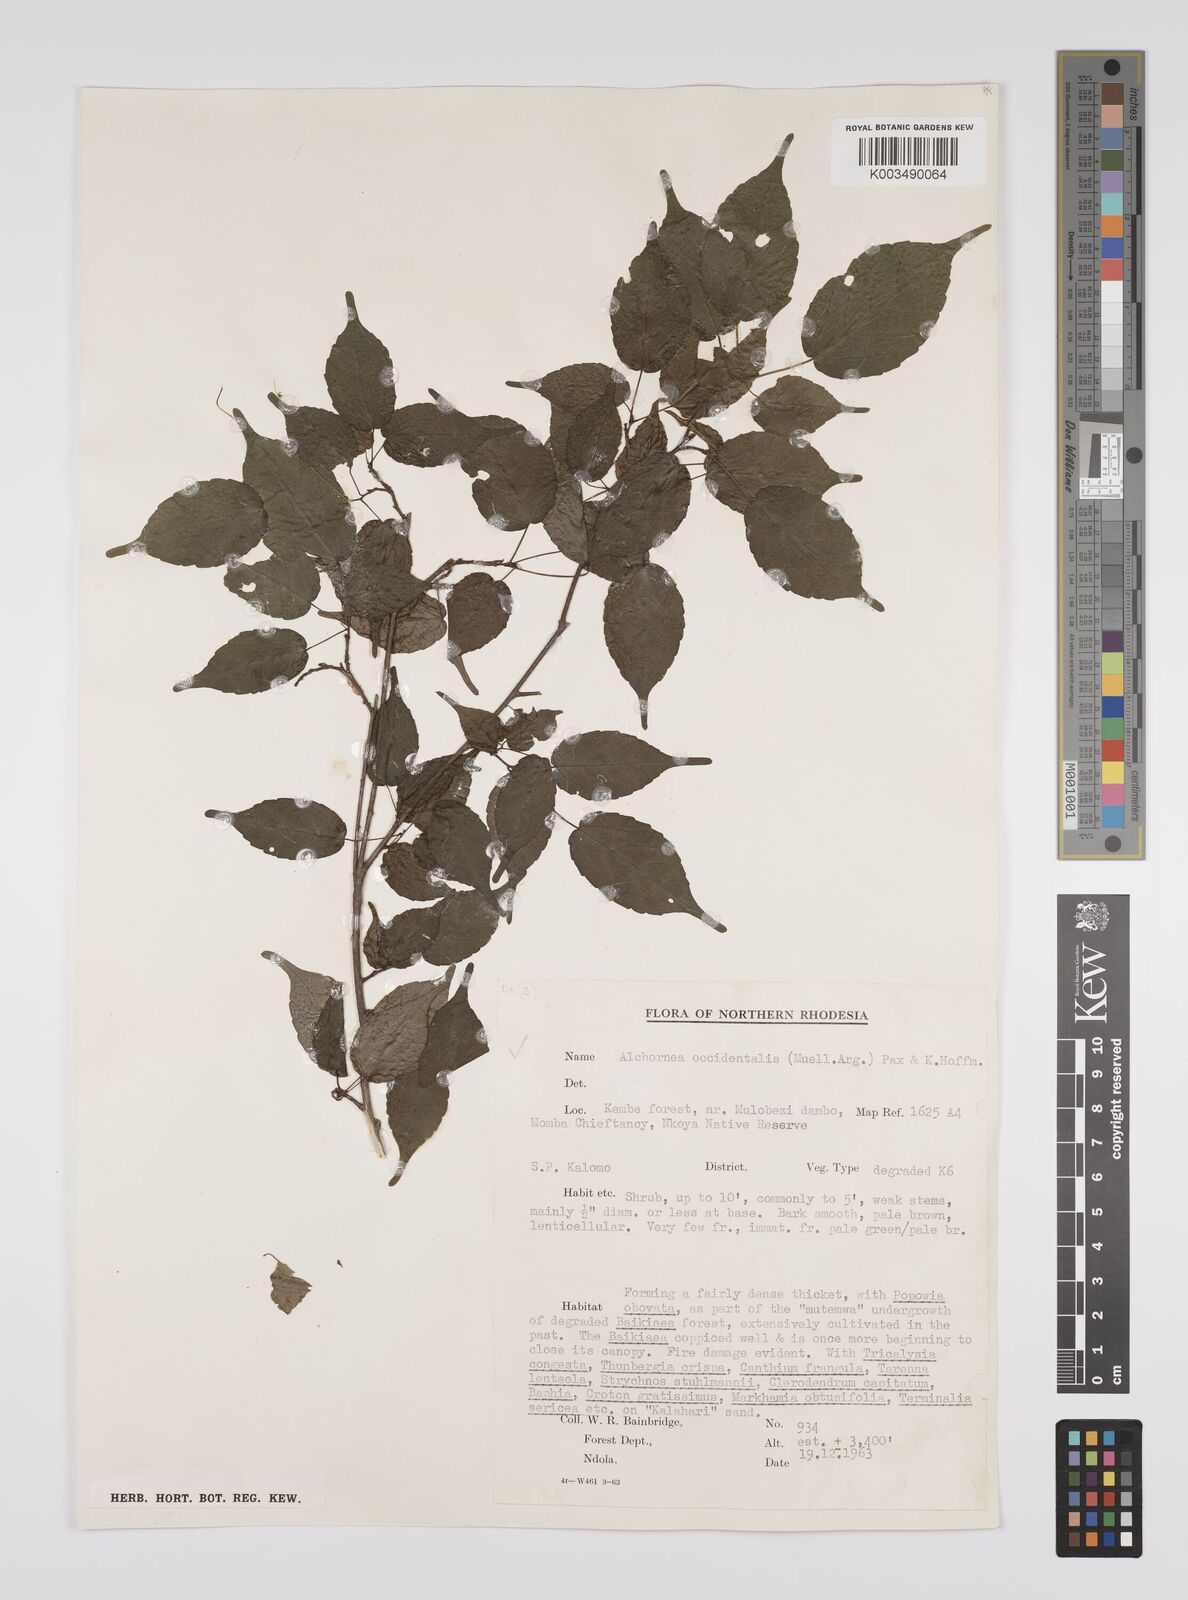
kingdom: Plantae
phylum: Tracheophyta
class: Magnoliopsida
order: Malpighiales
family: Euphorbiaceae
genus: Alchornea
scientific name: Alchornea occidentalis
